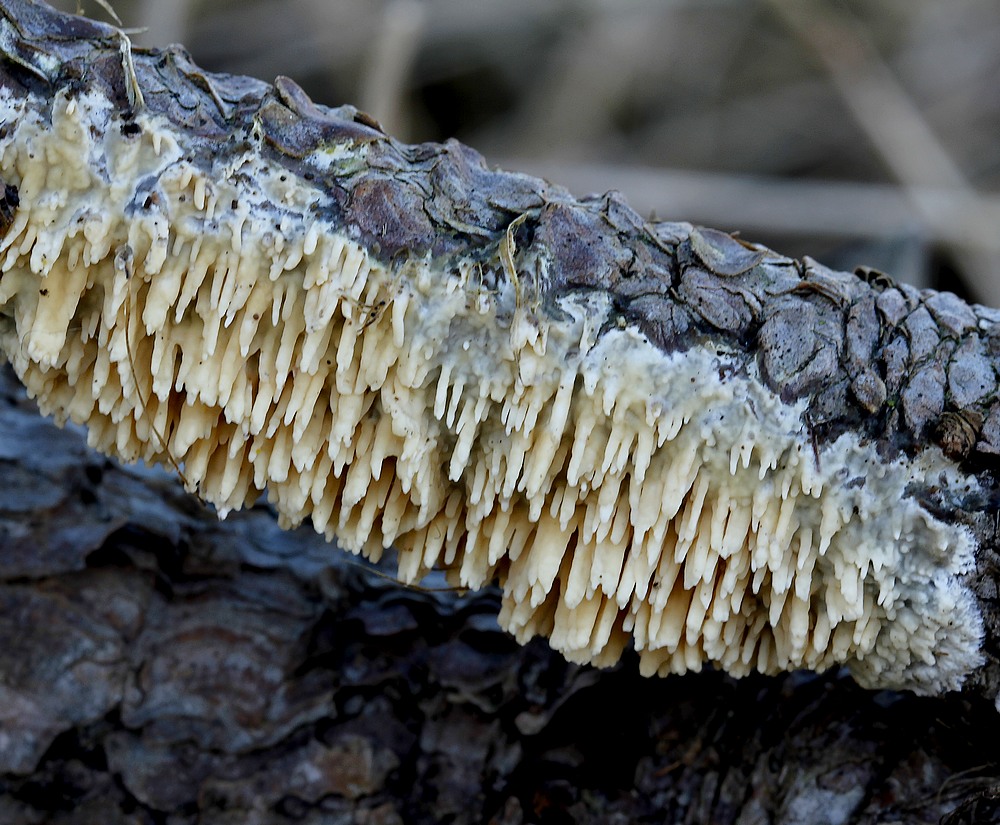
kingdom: Fungi
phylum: Basidiomycota
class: Agaricomycetes
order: Hymenochaetales
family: Schizoporaceae
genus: Xylodon
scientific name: Xylodon radula
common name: grovtandet kalkskind
